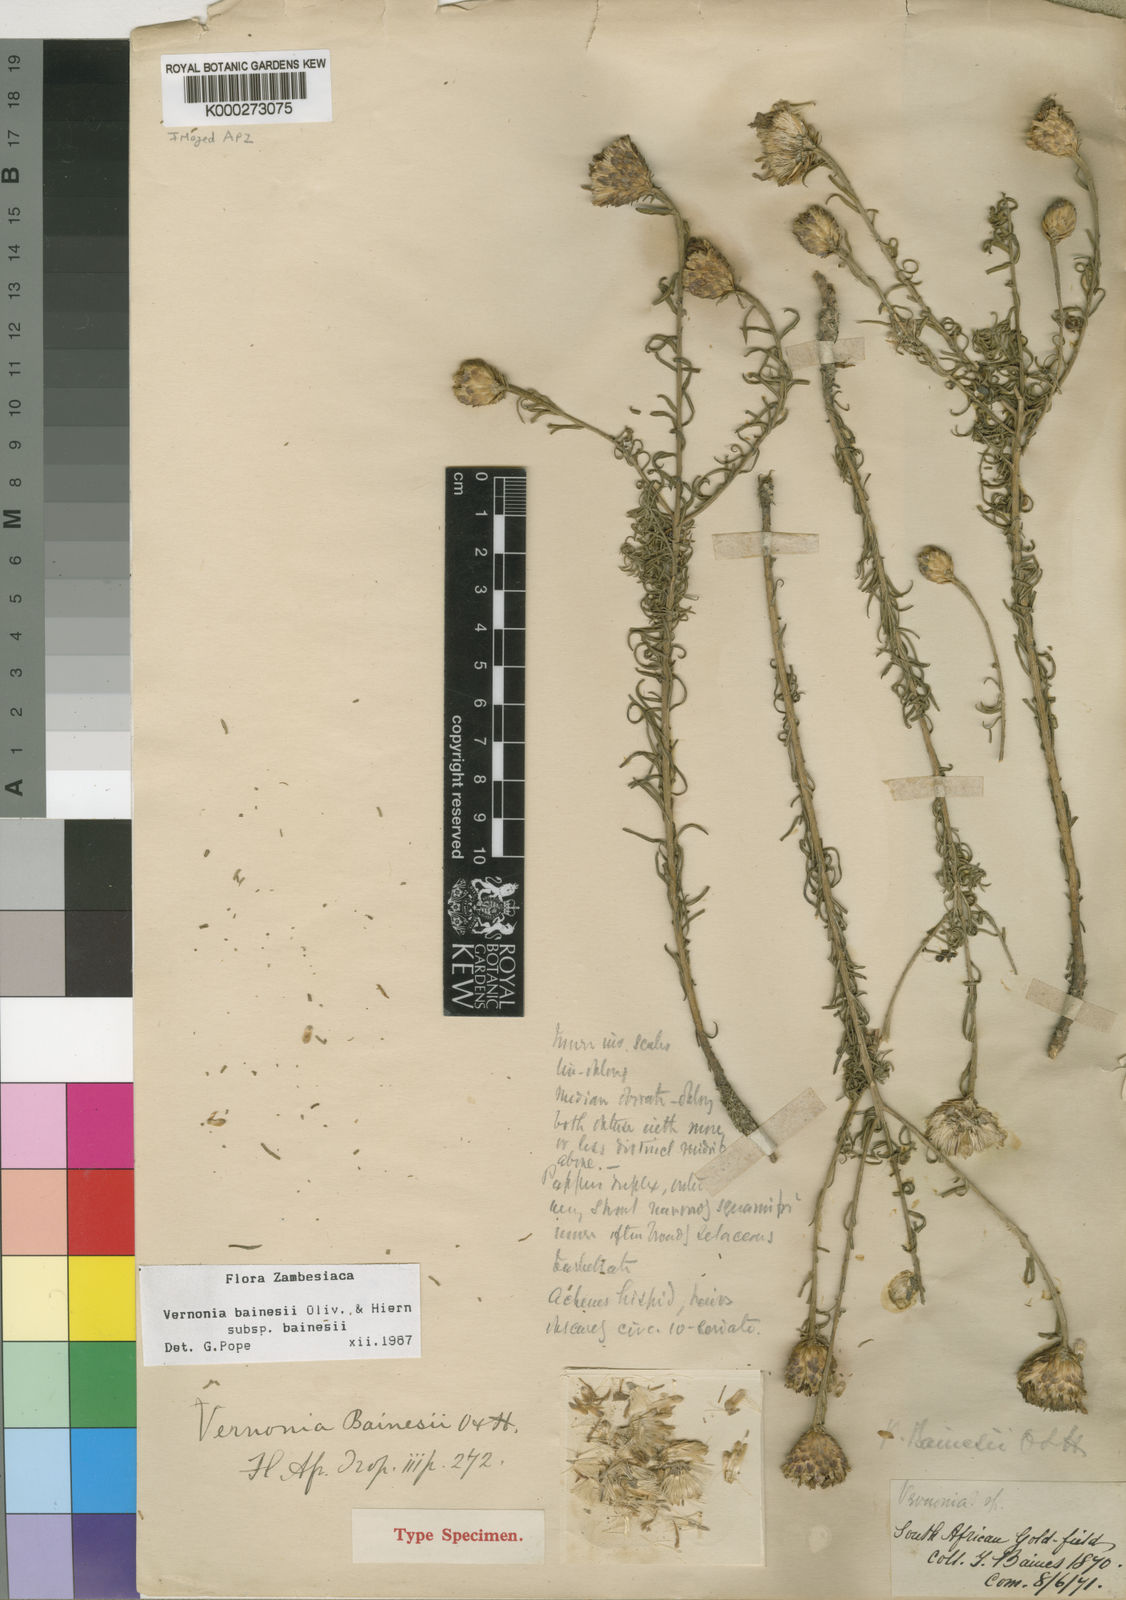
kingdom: Plantae
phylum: Tracheophyta
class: Magnoliopsida
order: Asterales
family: Asteraceae
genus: Crystallopollen
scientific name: Crystallopollen bainesii
